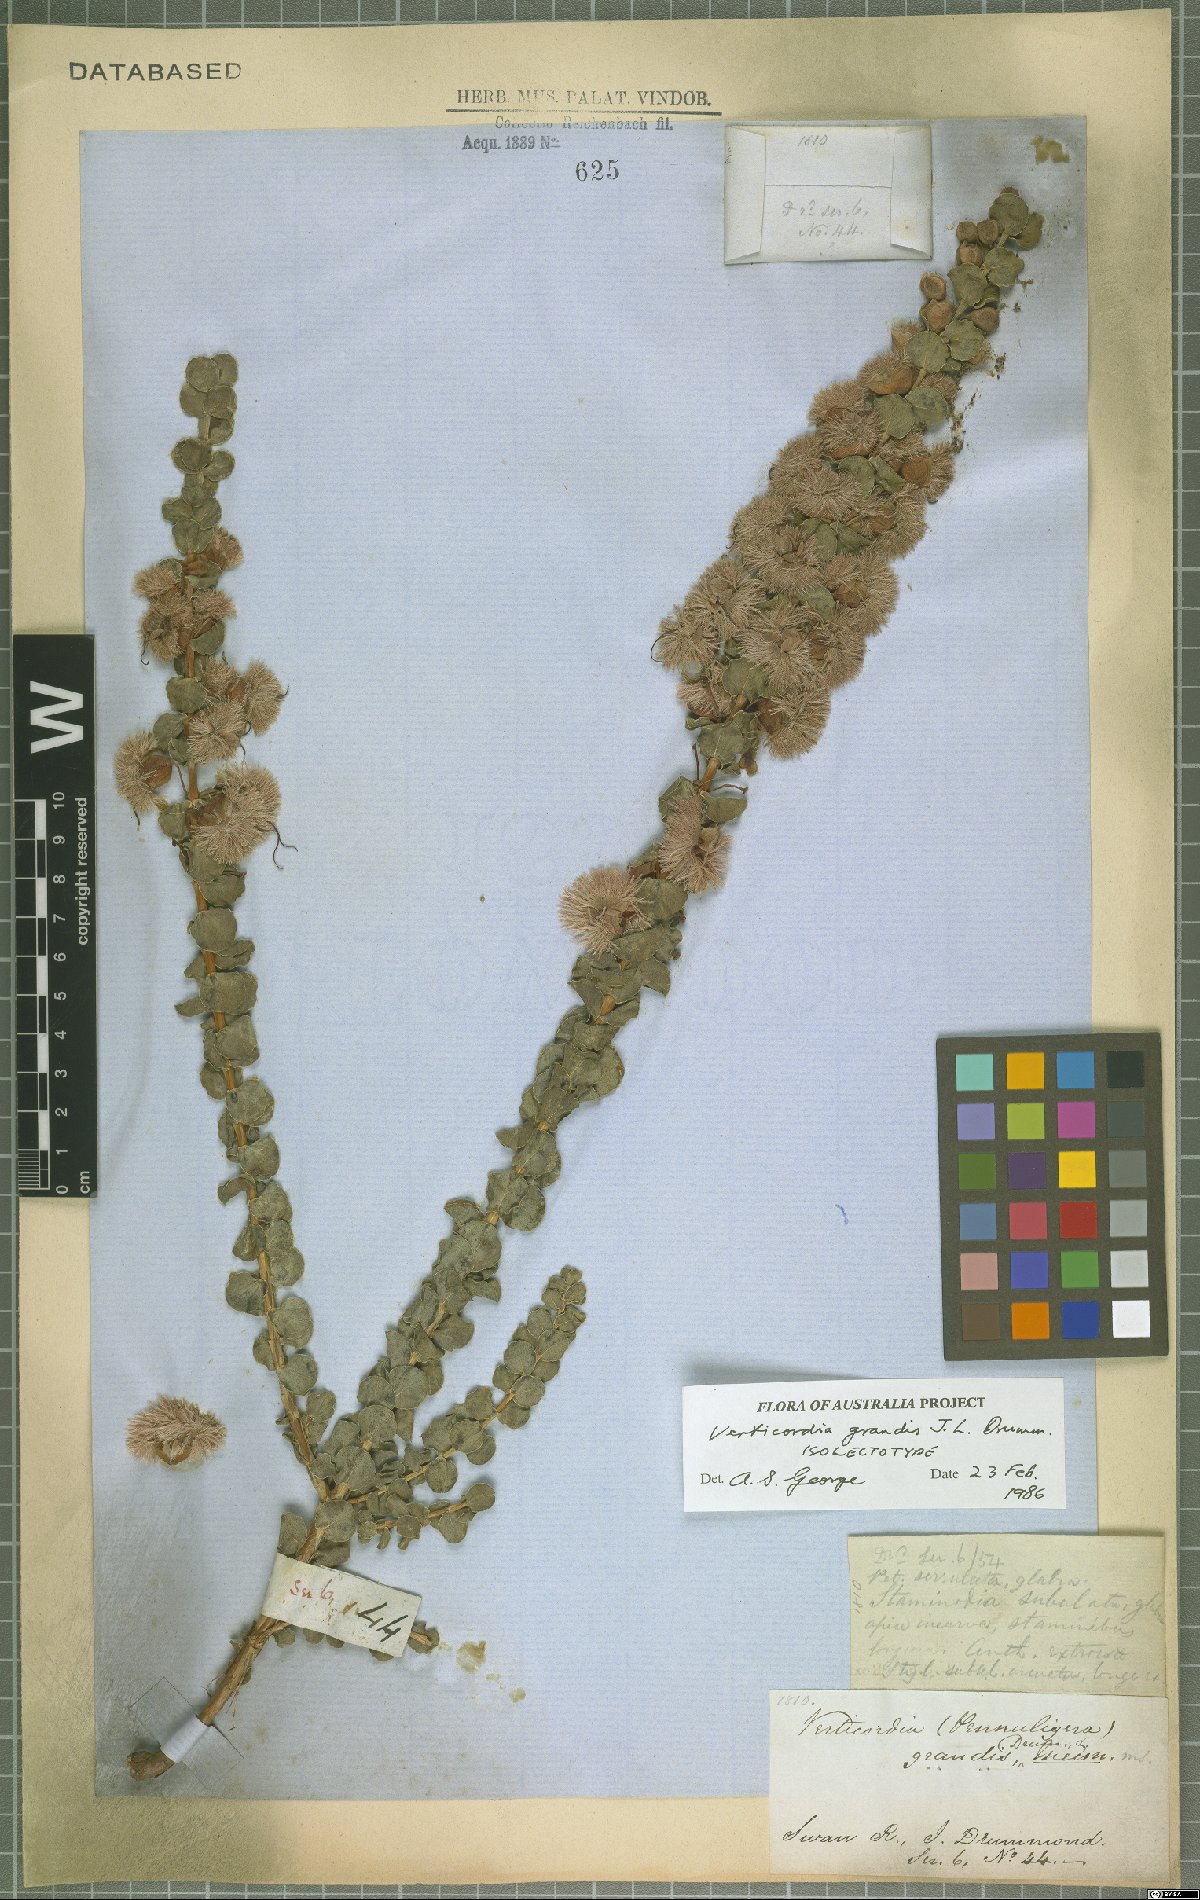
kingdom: Plantae
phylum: Tracheophyta
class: Magnoliopsida
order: Myrtales
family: Myrtaceae
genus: Verticordia
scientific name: Verticordia grandis
